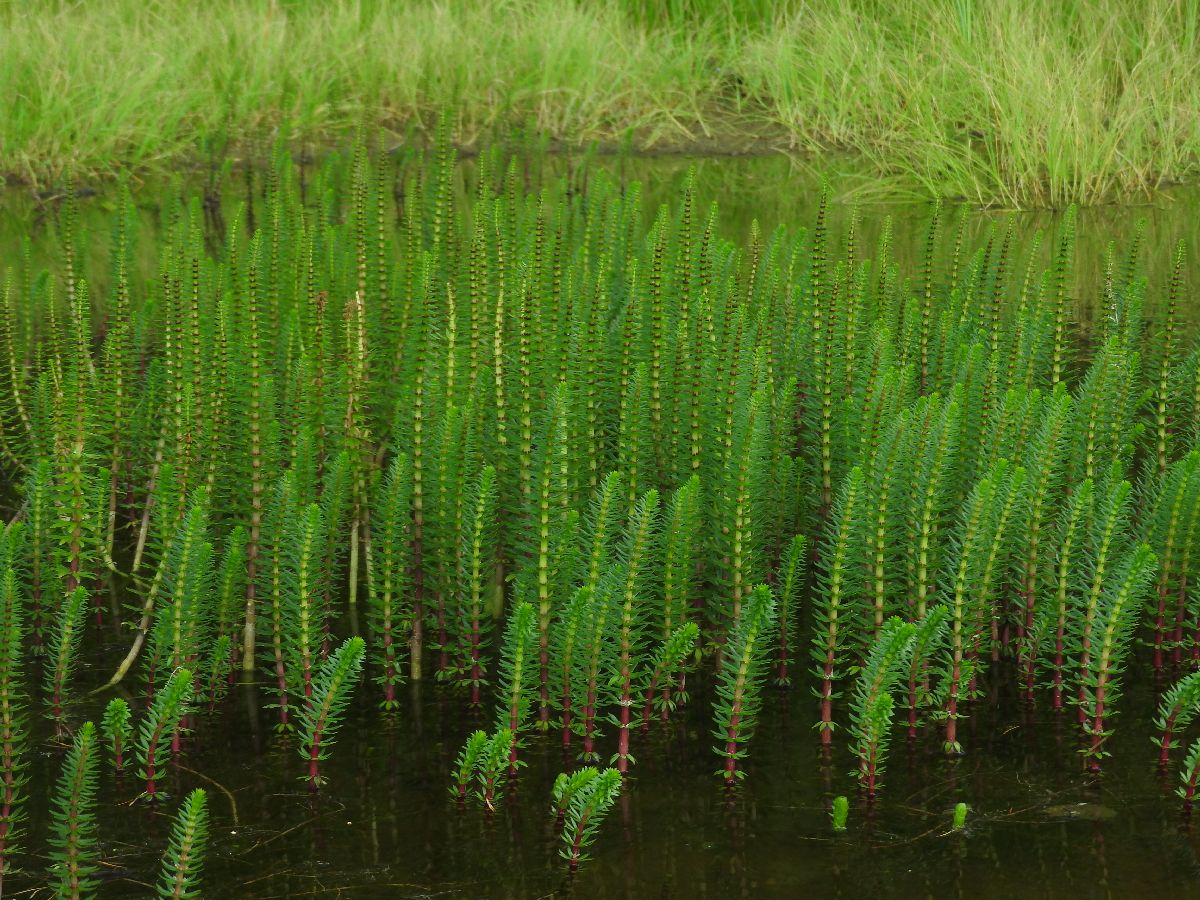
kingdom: Plantae
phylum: Tracheophyta
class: Magnoliopsida
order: Lamiales
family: Plantaginaceae
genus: Hippuris
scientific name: Hippuris vulgaris
